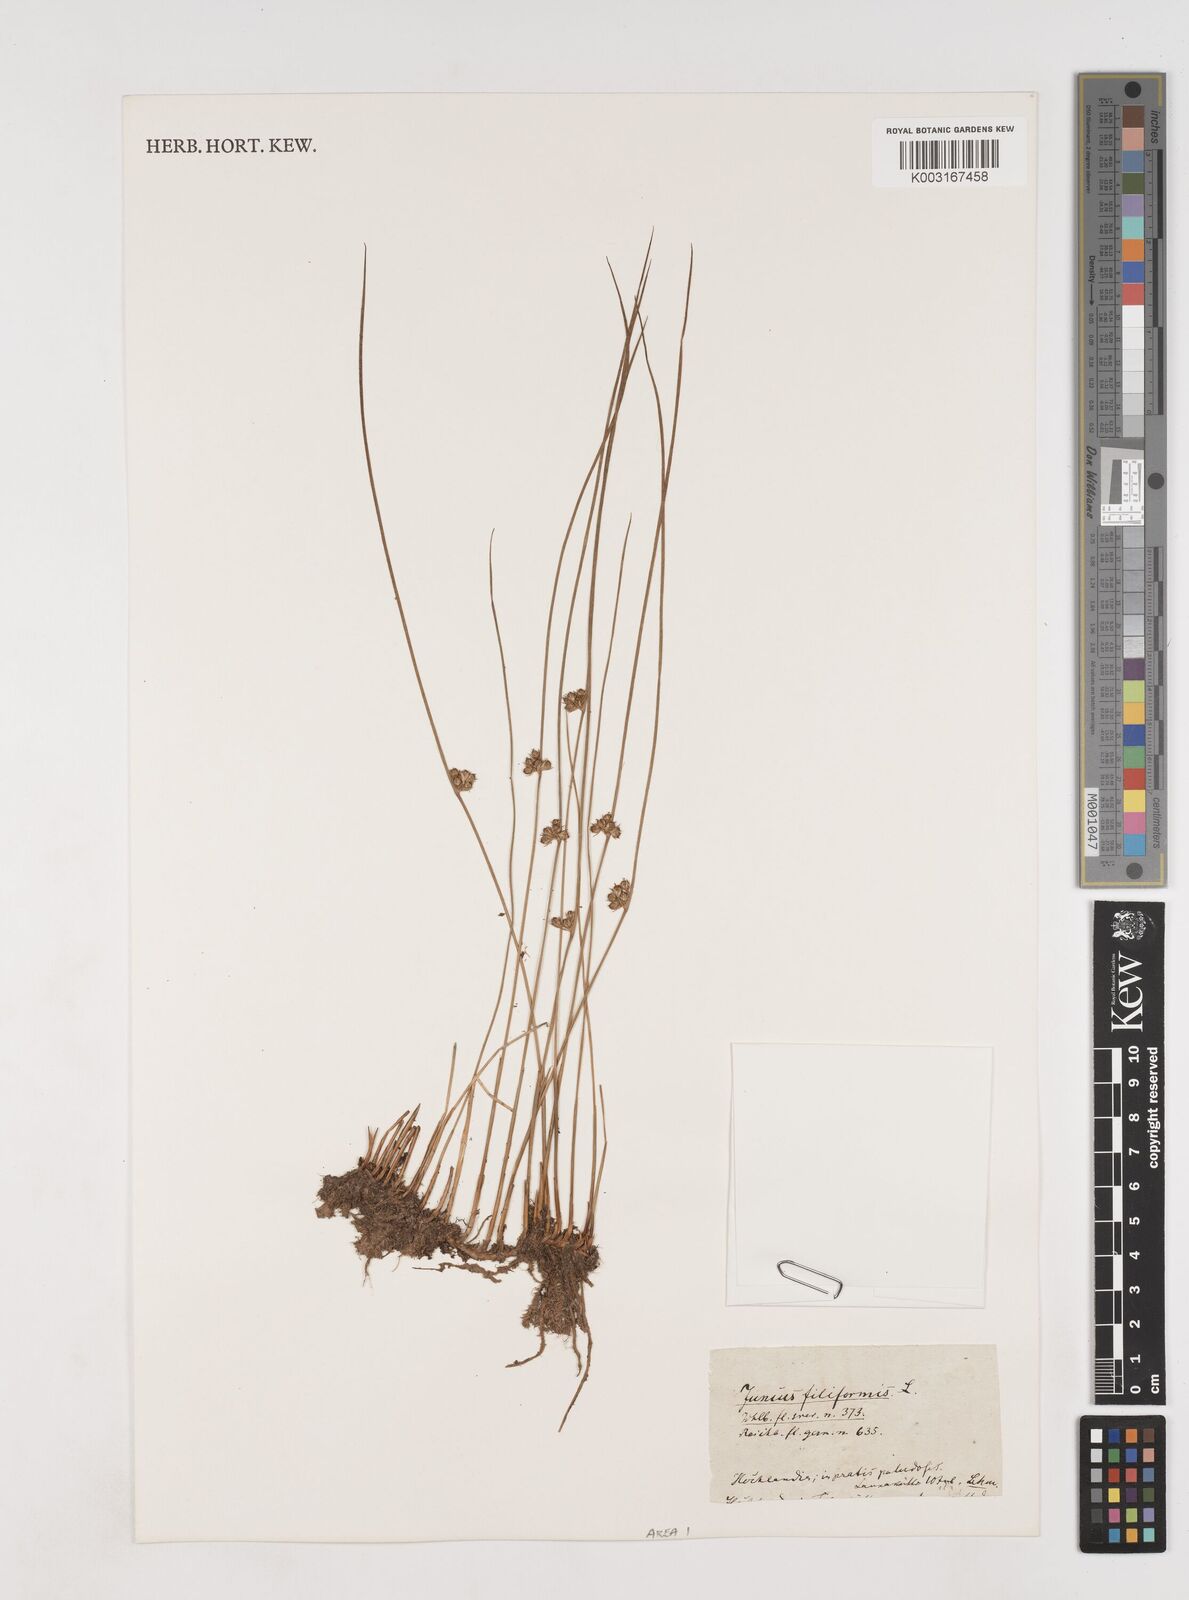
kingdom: Plantae
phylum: Tracheophyta
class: Liliopsida
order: Poales
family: Juncaceae
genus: Juncus
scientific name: Juncus filiformis
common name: Thread rush
